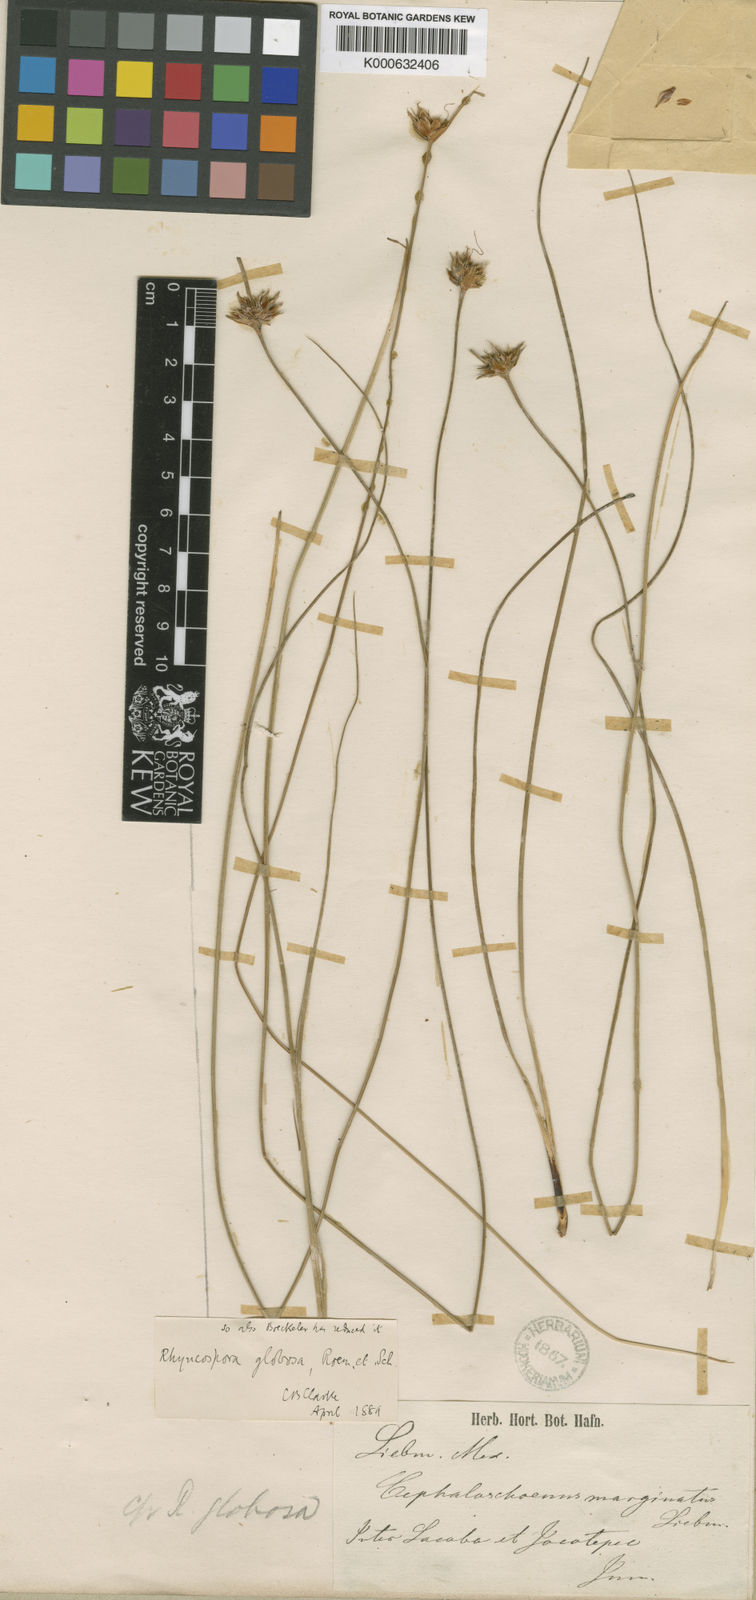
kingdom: Plantae
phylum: Tracheophyta
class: Liliopsida
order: Poales
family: Cyperaceae
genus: Rhynchospora
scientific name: Rhynchospora globosa
